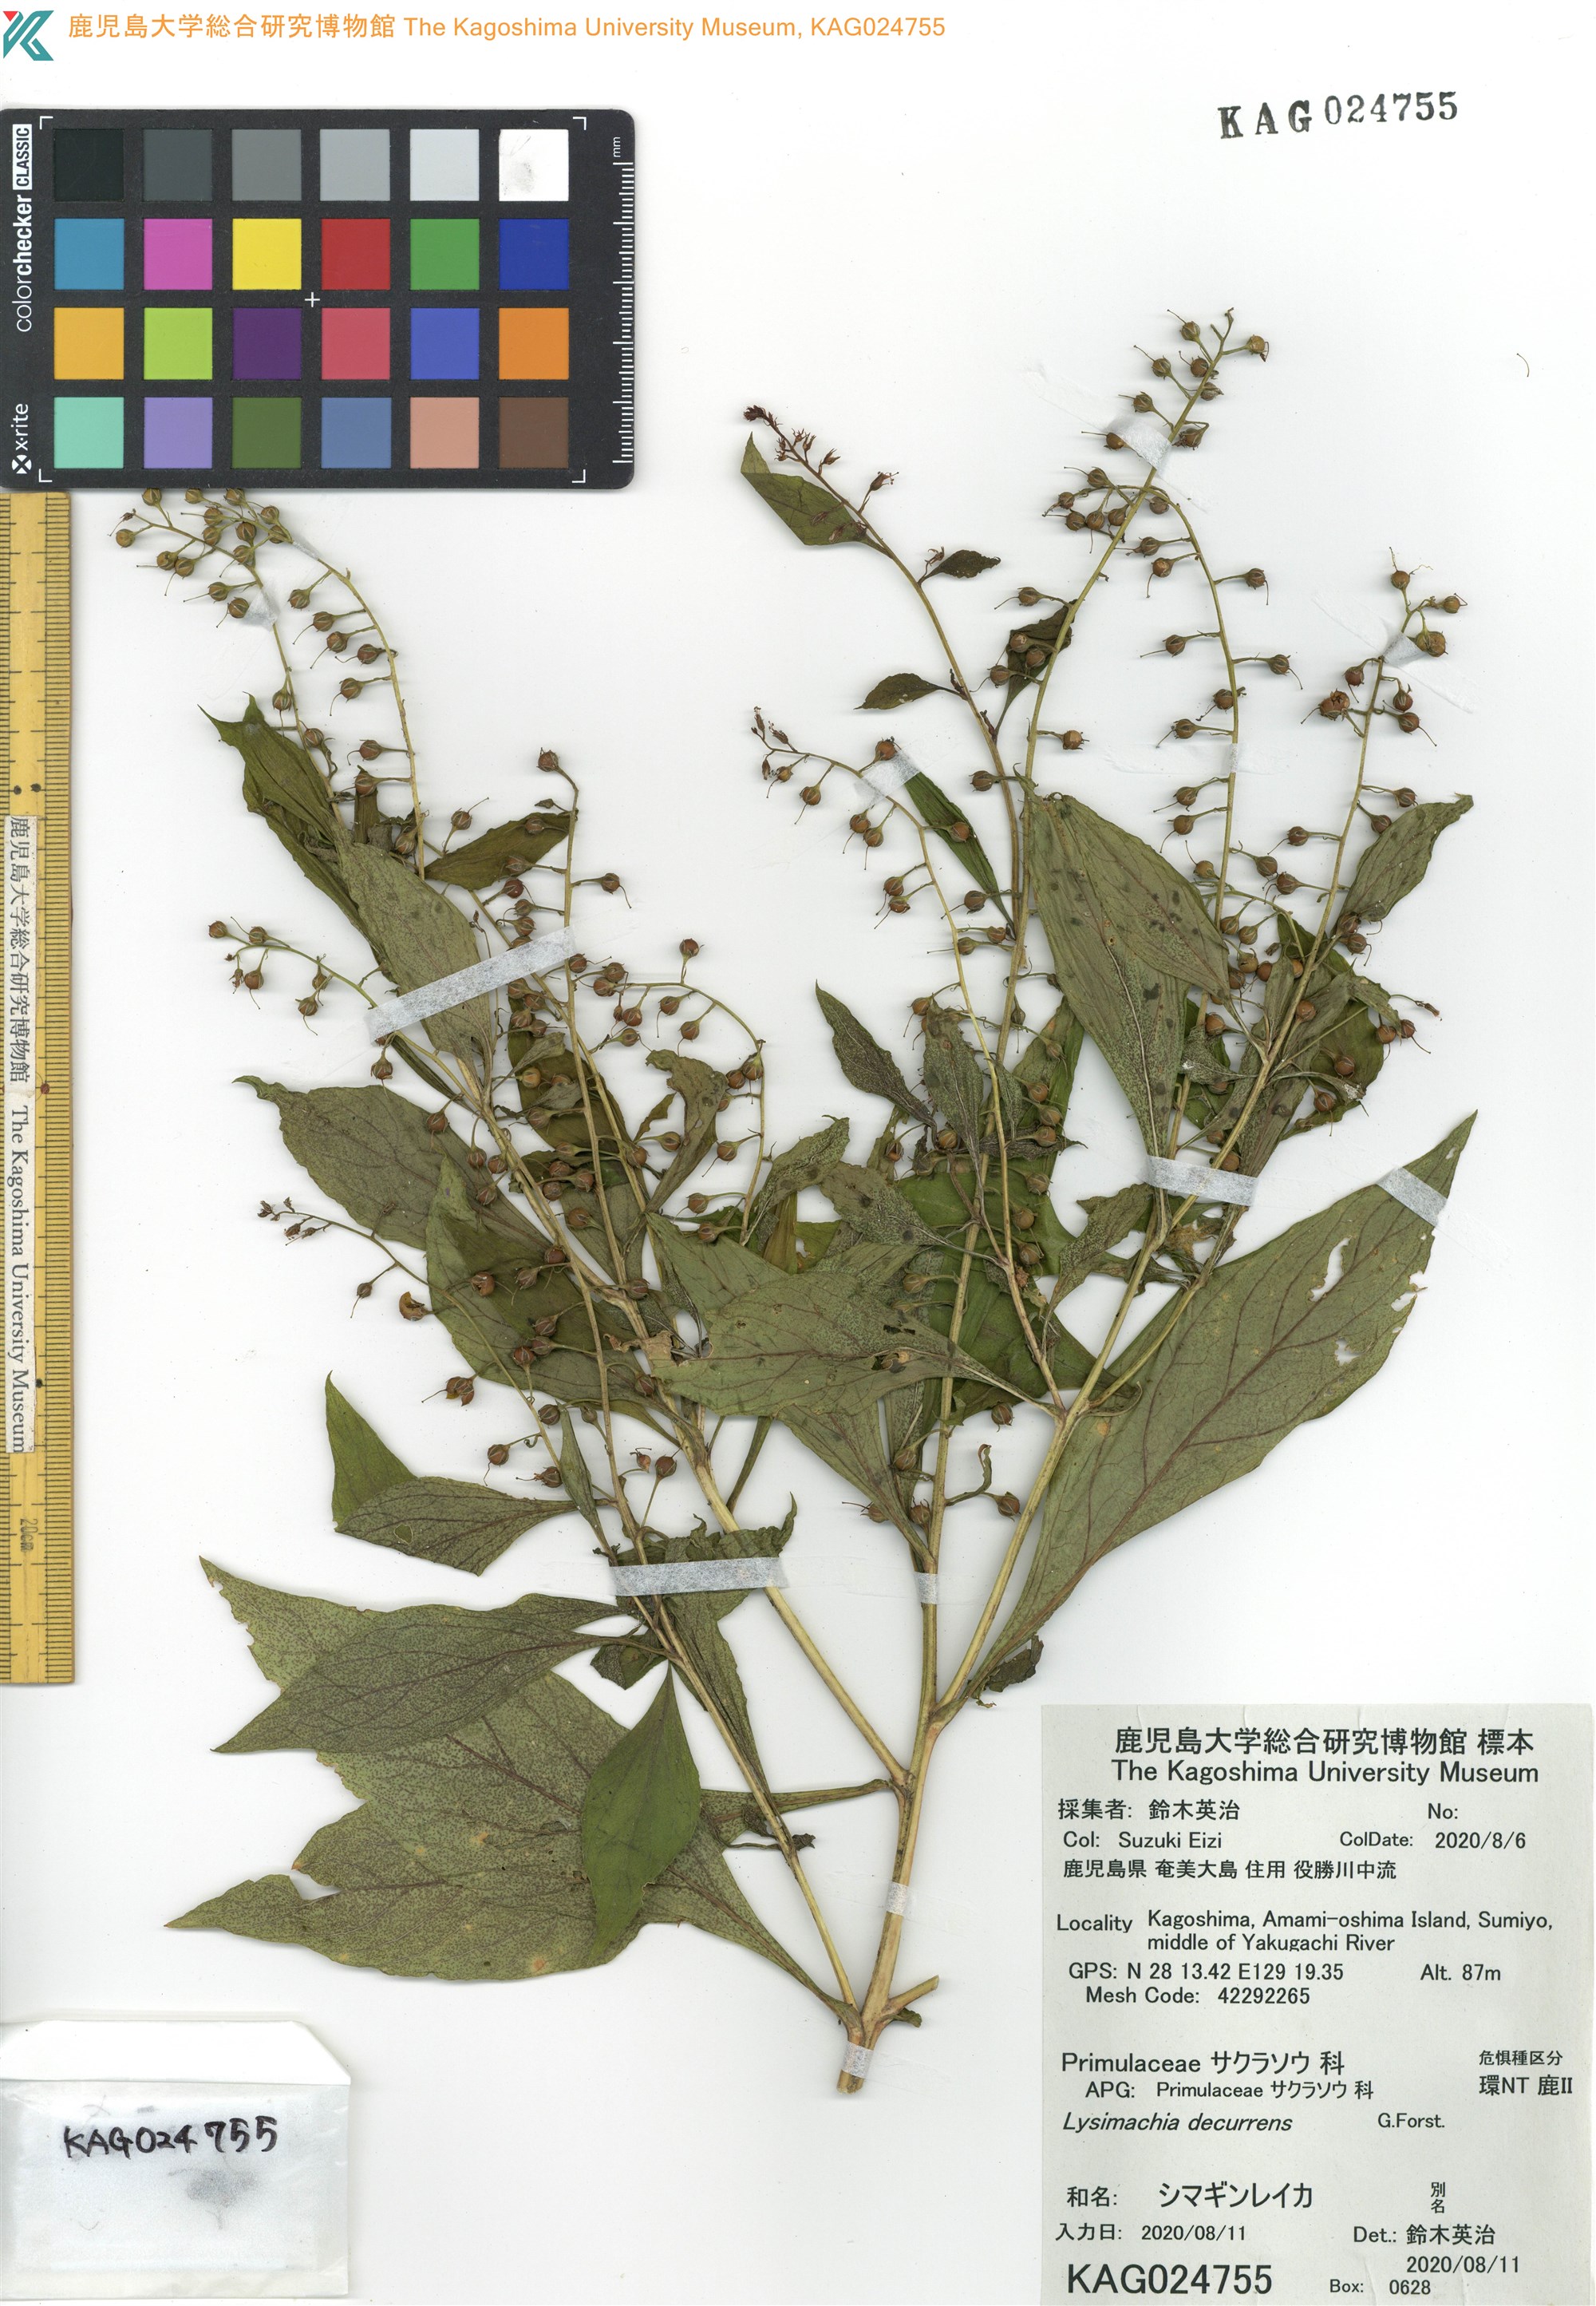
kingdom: Plantae
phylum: Tracheophyta
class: Magnoliopsida
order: Ericales
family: Primulaceae
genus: Lysimachia
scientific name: Lysimachia decurrens
